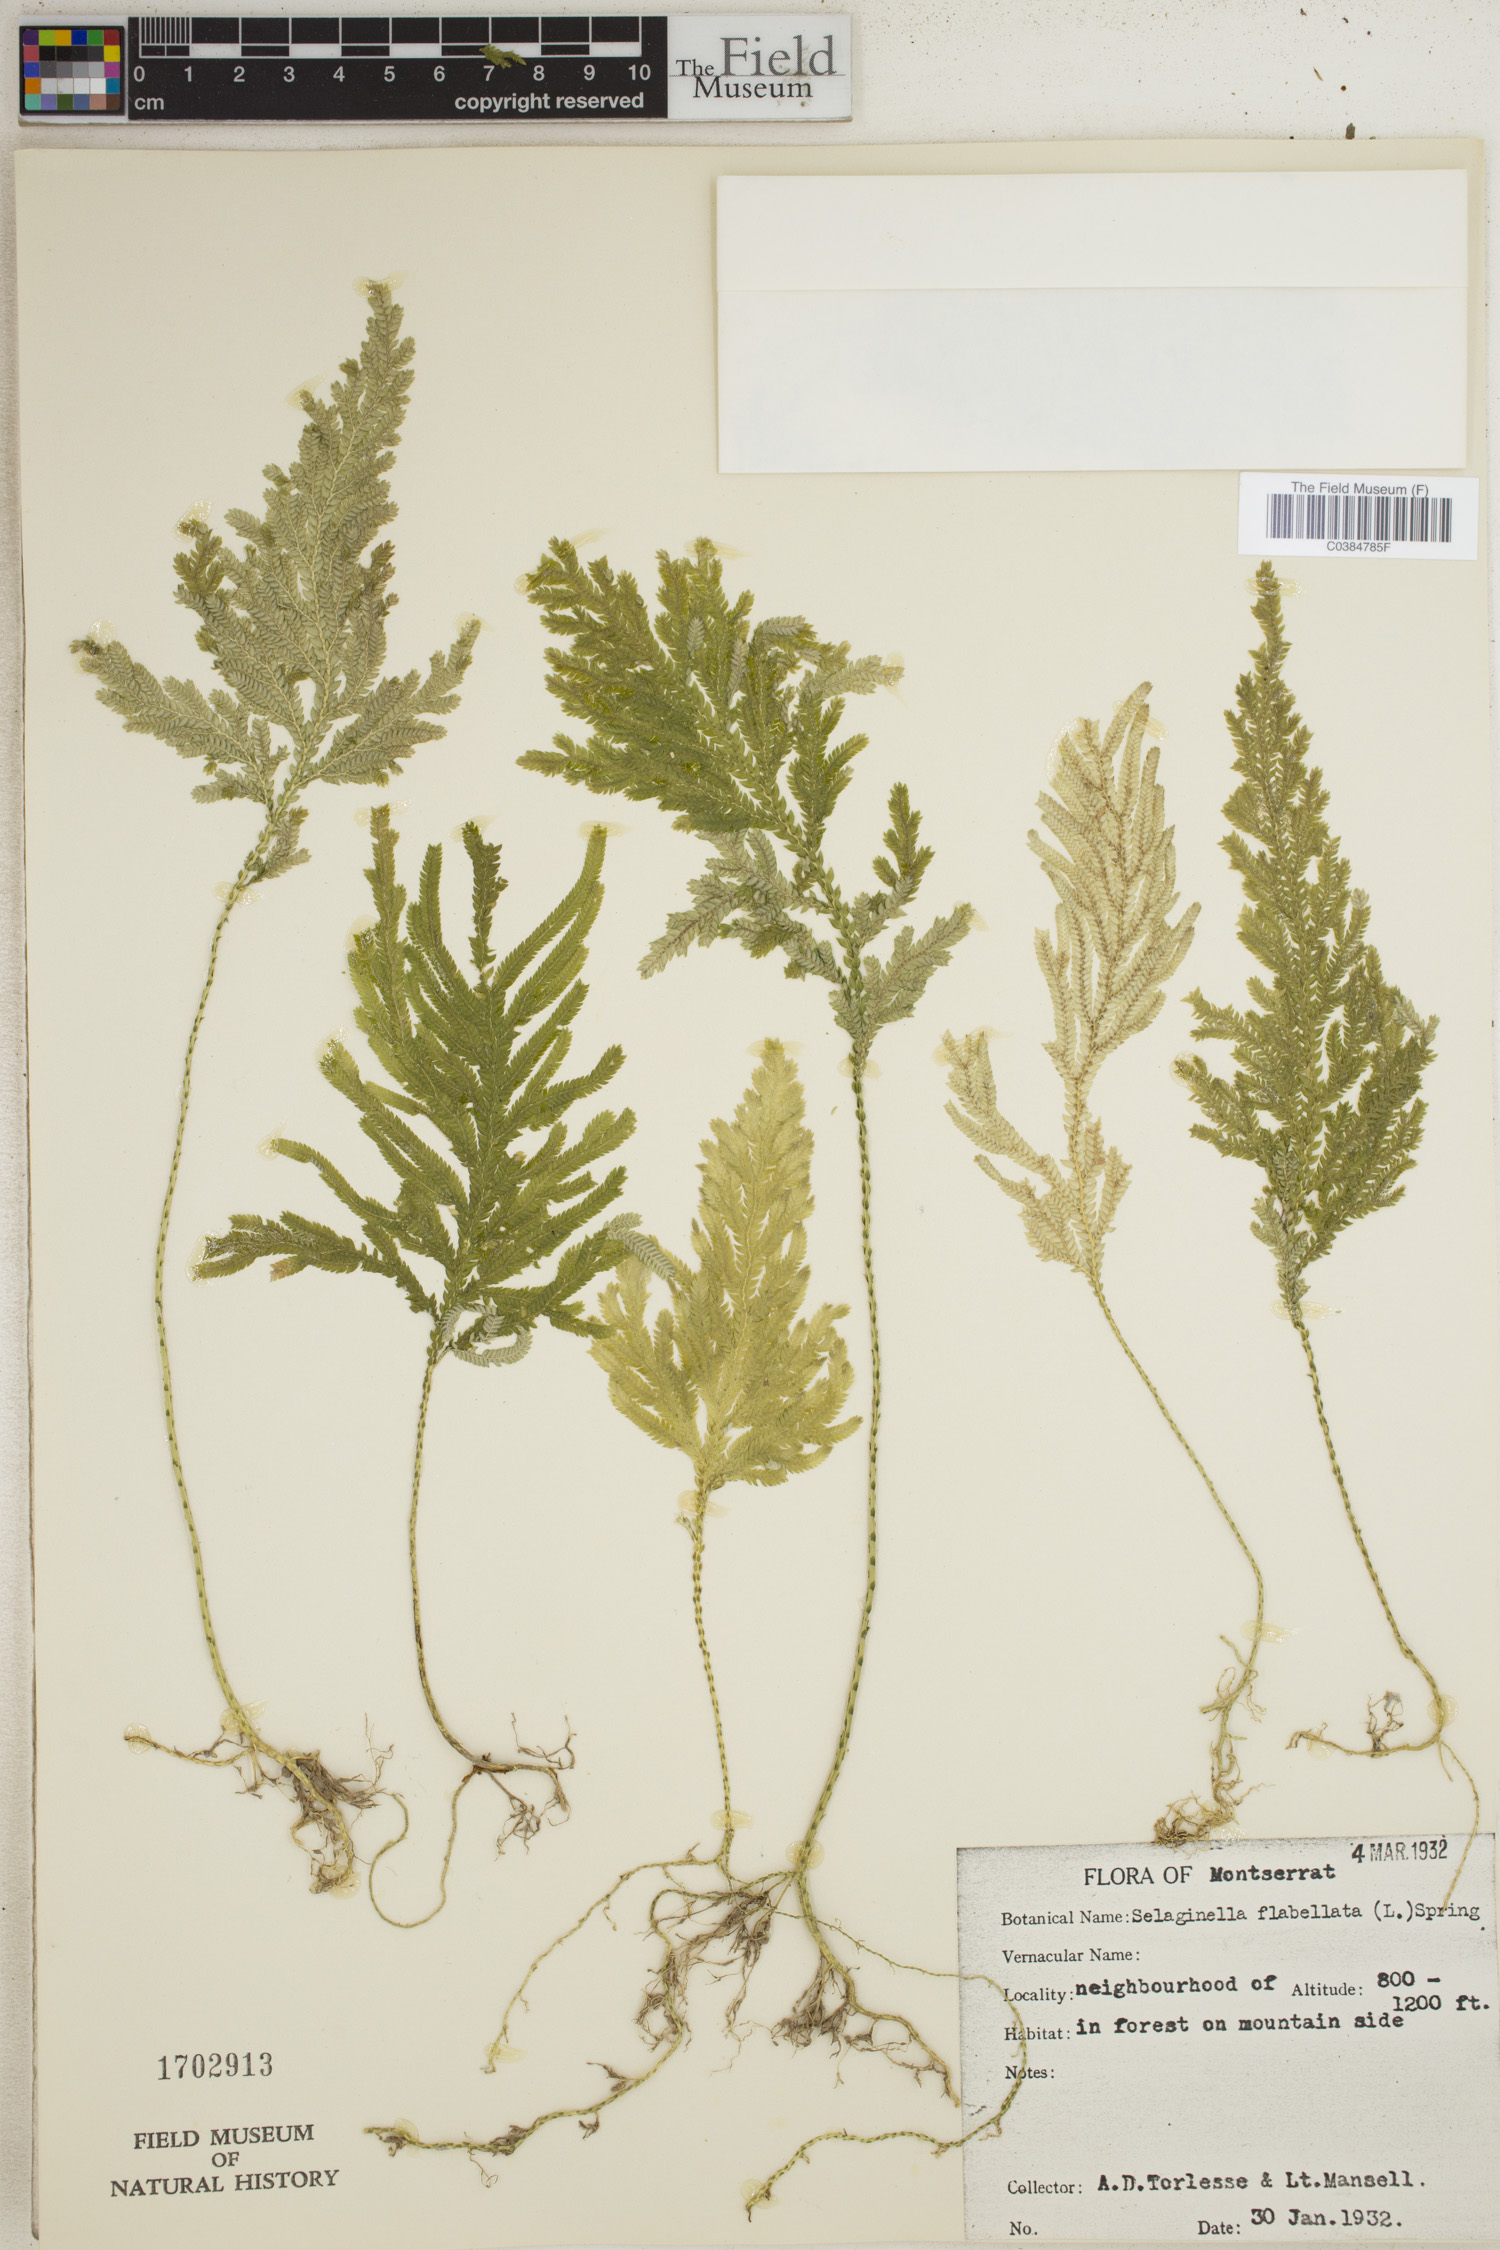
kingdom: Plantae
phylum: Tracheophyta
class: Lycopodiopsida
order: Selaginellales
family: Selaginellaceae
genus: Selaginella
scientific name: Selaginella flabellata
